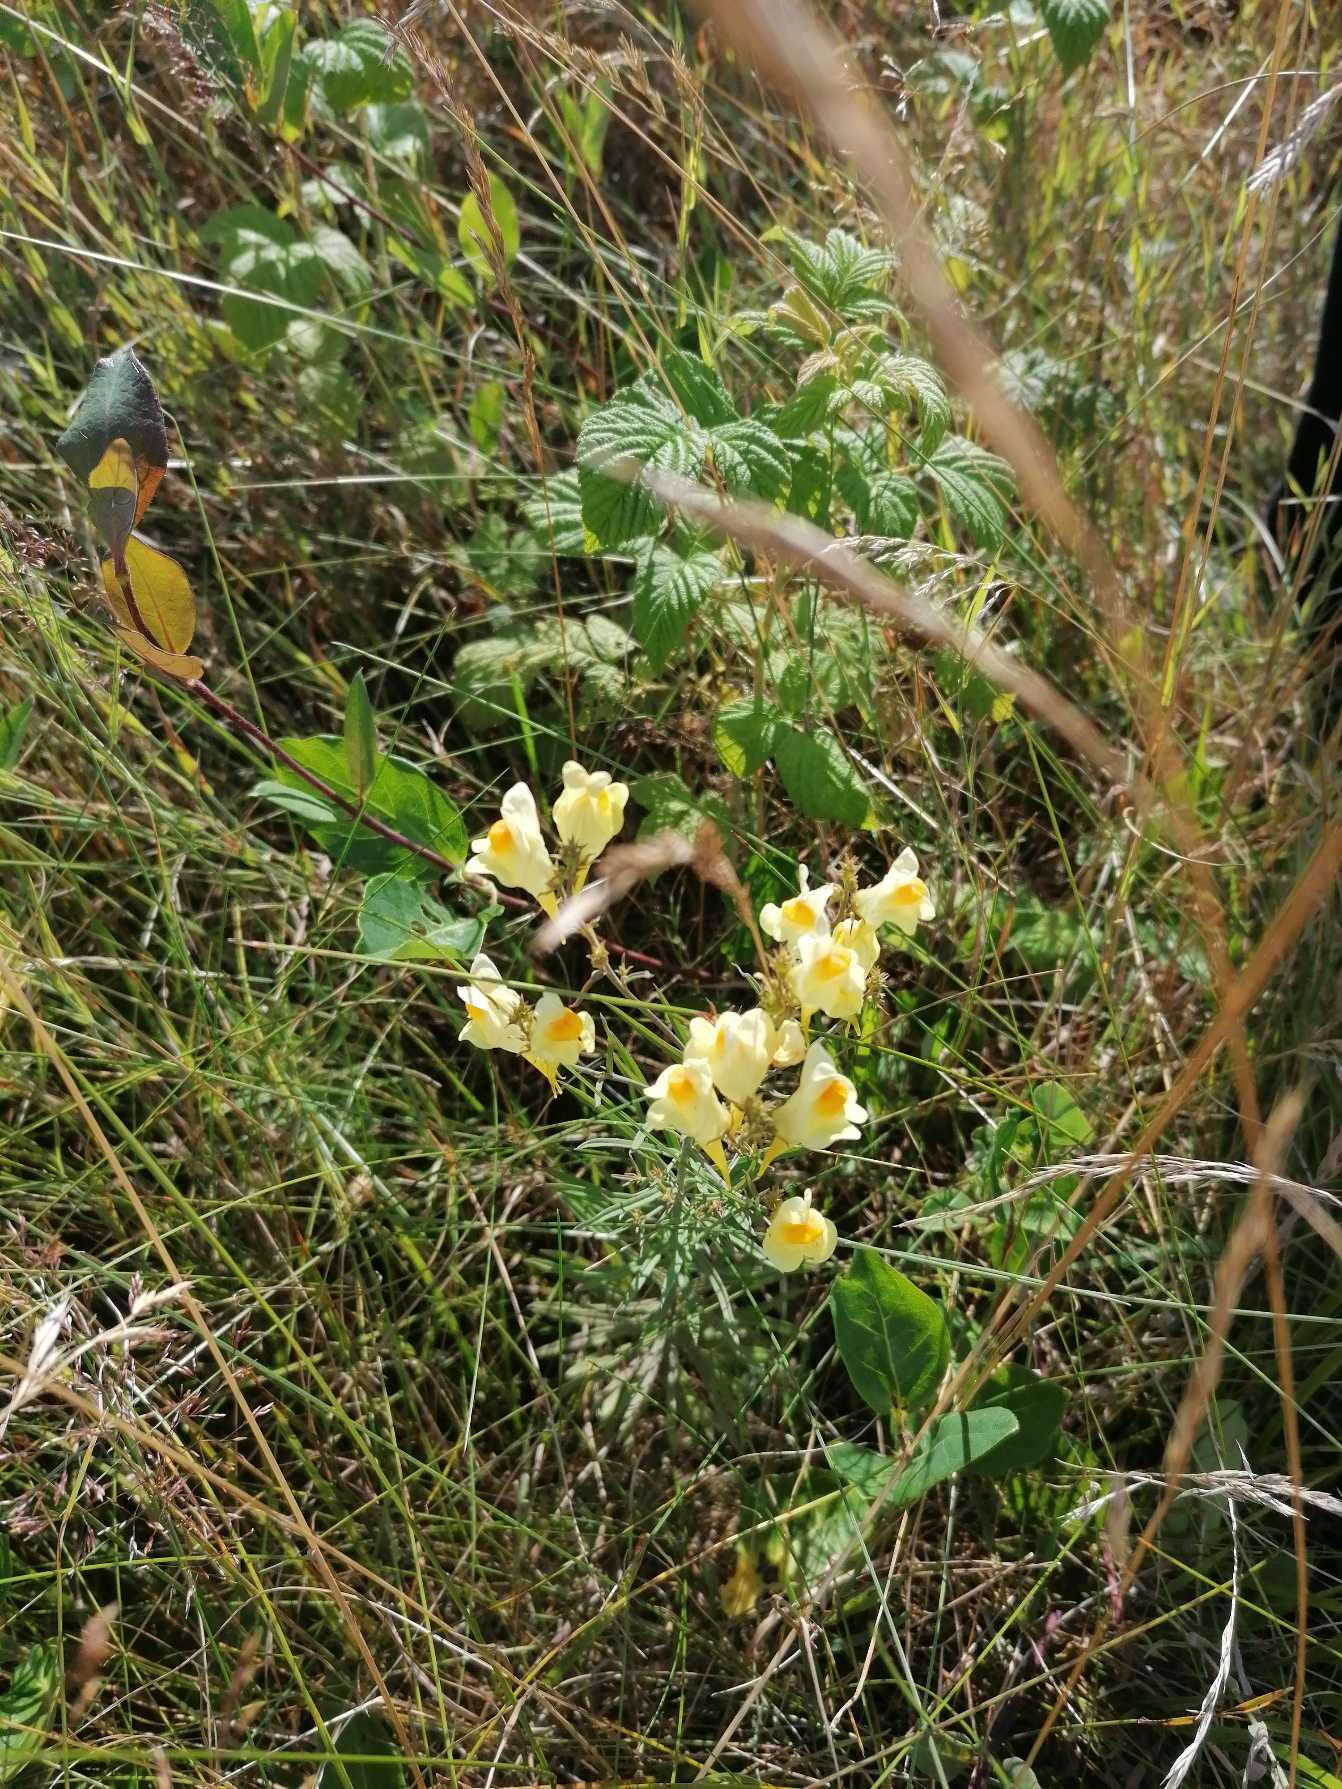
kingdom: Plantae
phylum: Tracheophyta
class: Magnoliopsida
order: Lamiales
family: Plantaginaceae
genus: Linaria
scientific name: Linaria vulgaris
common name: Almindelig torskemund
